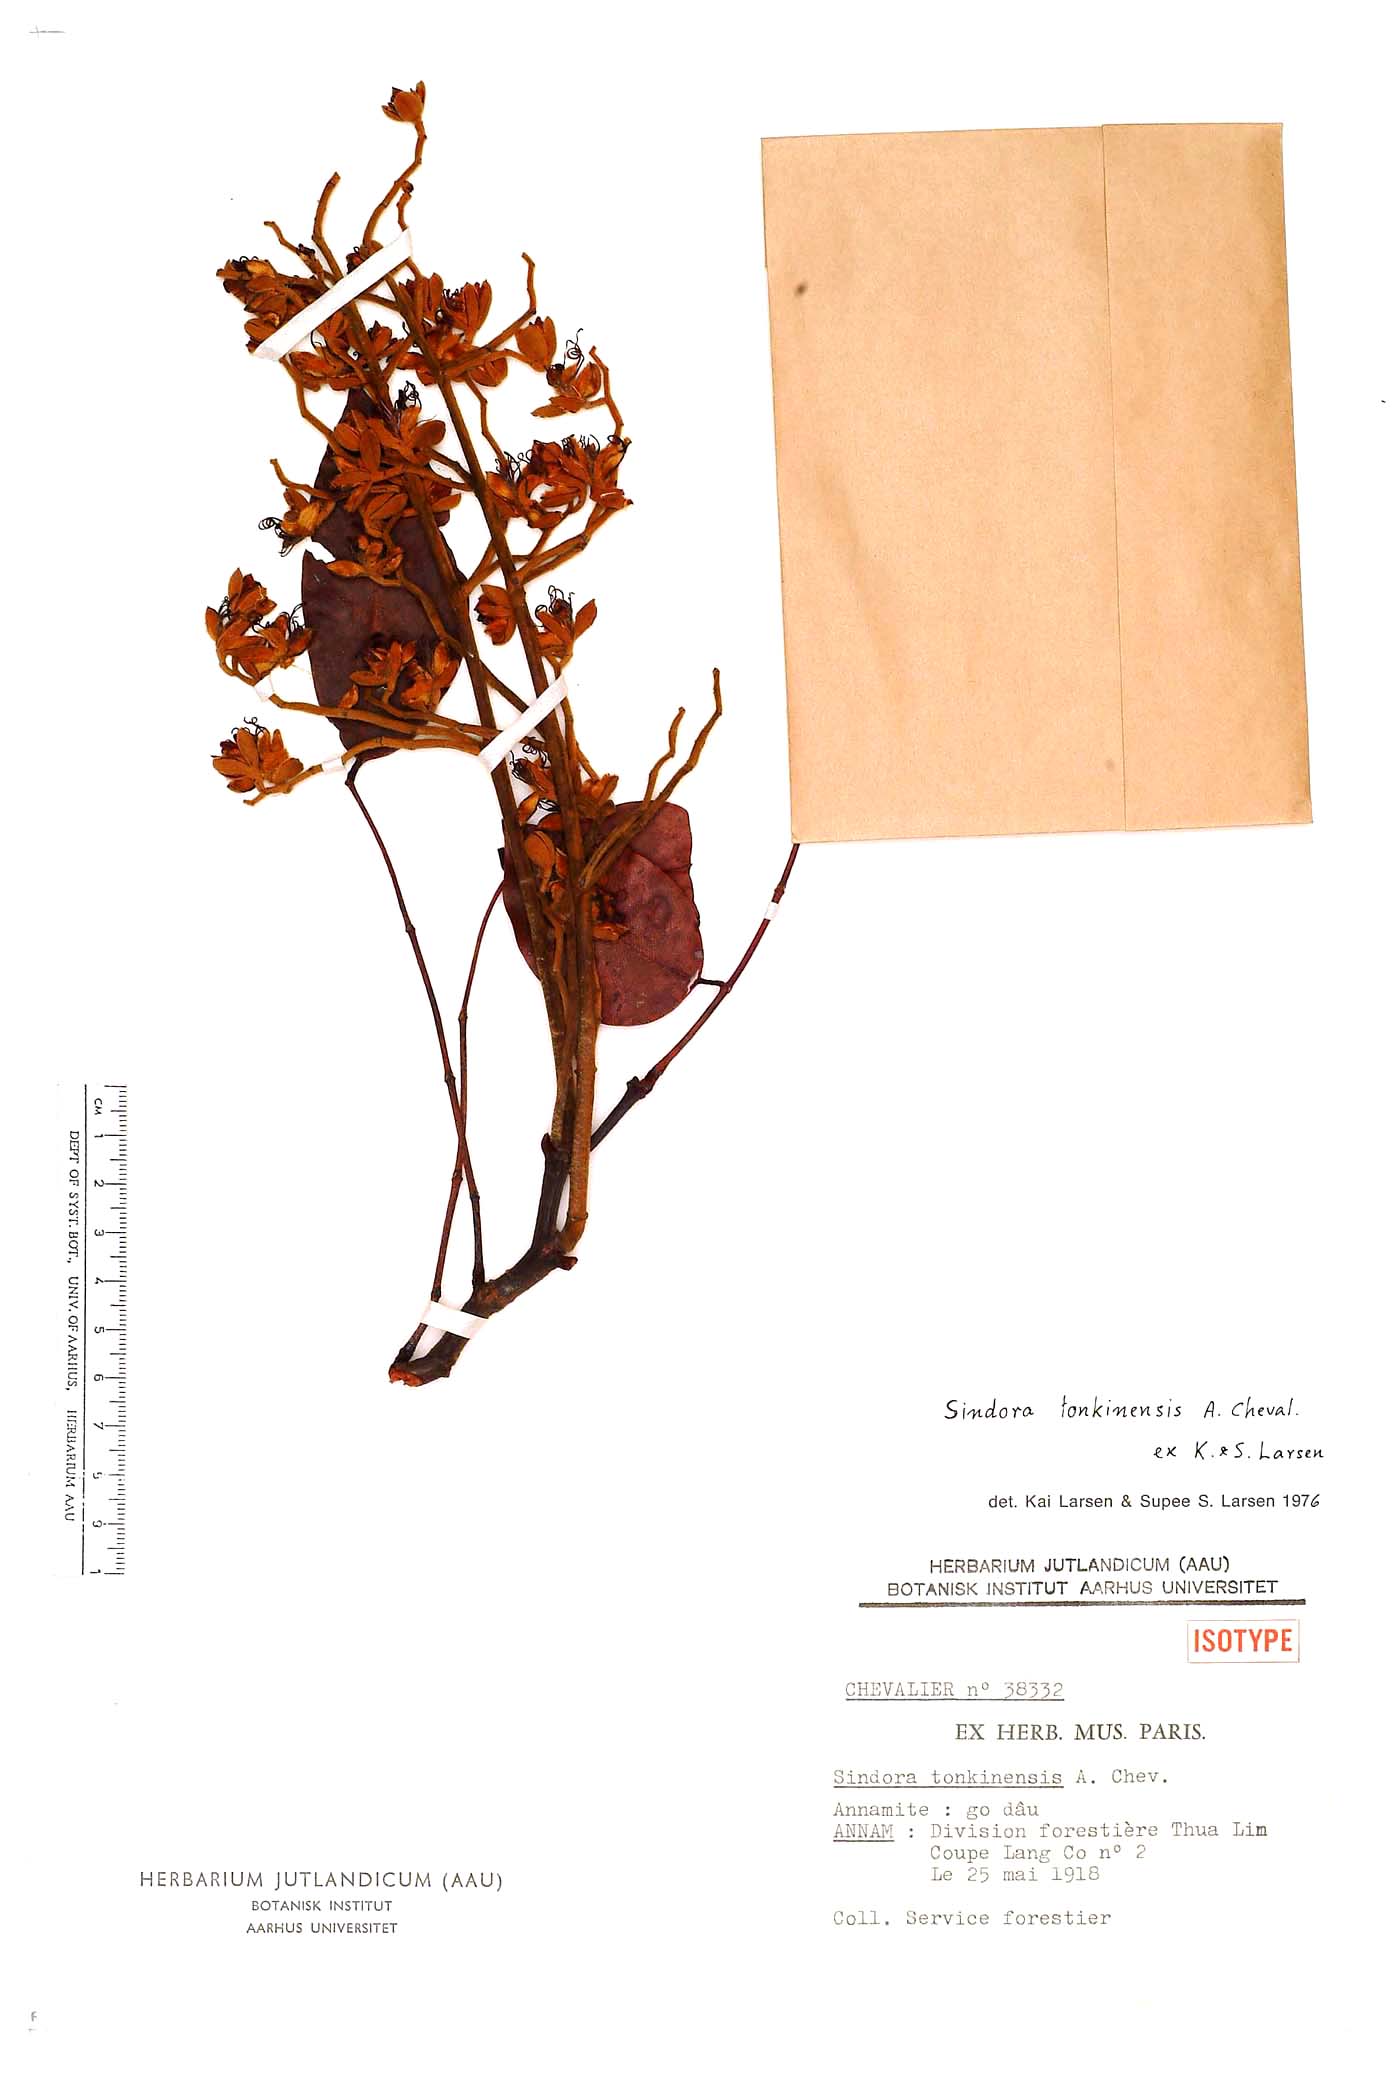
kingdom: Plantae
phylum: Tracheophyta
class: Magnoliopsida
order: Fabales
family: Fabaceae
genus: Sindora
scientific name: Sindora tonkinensis
